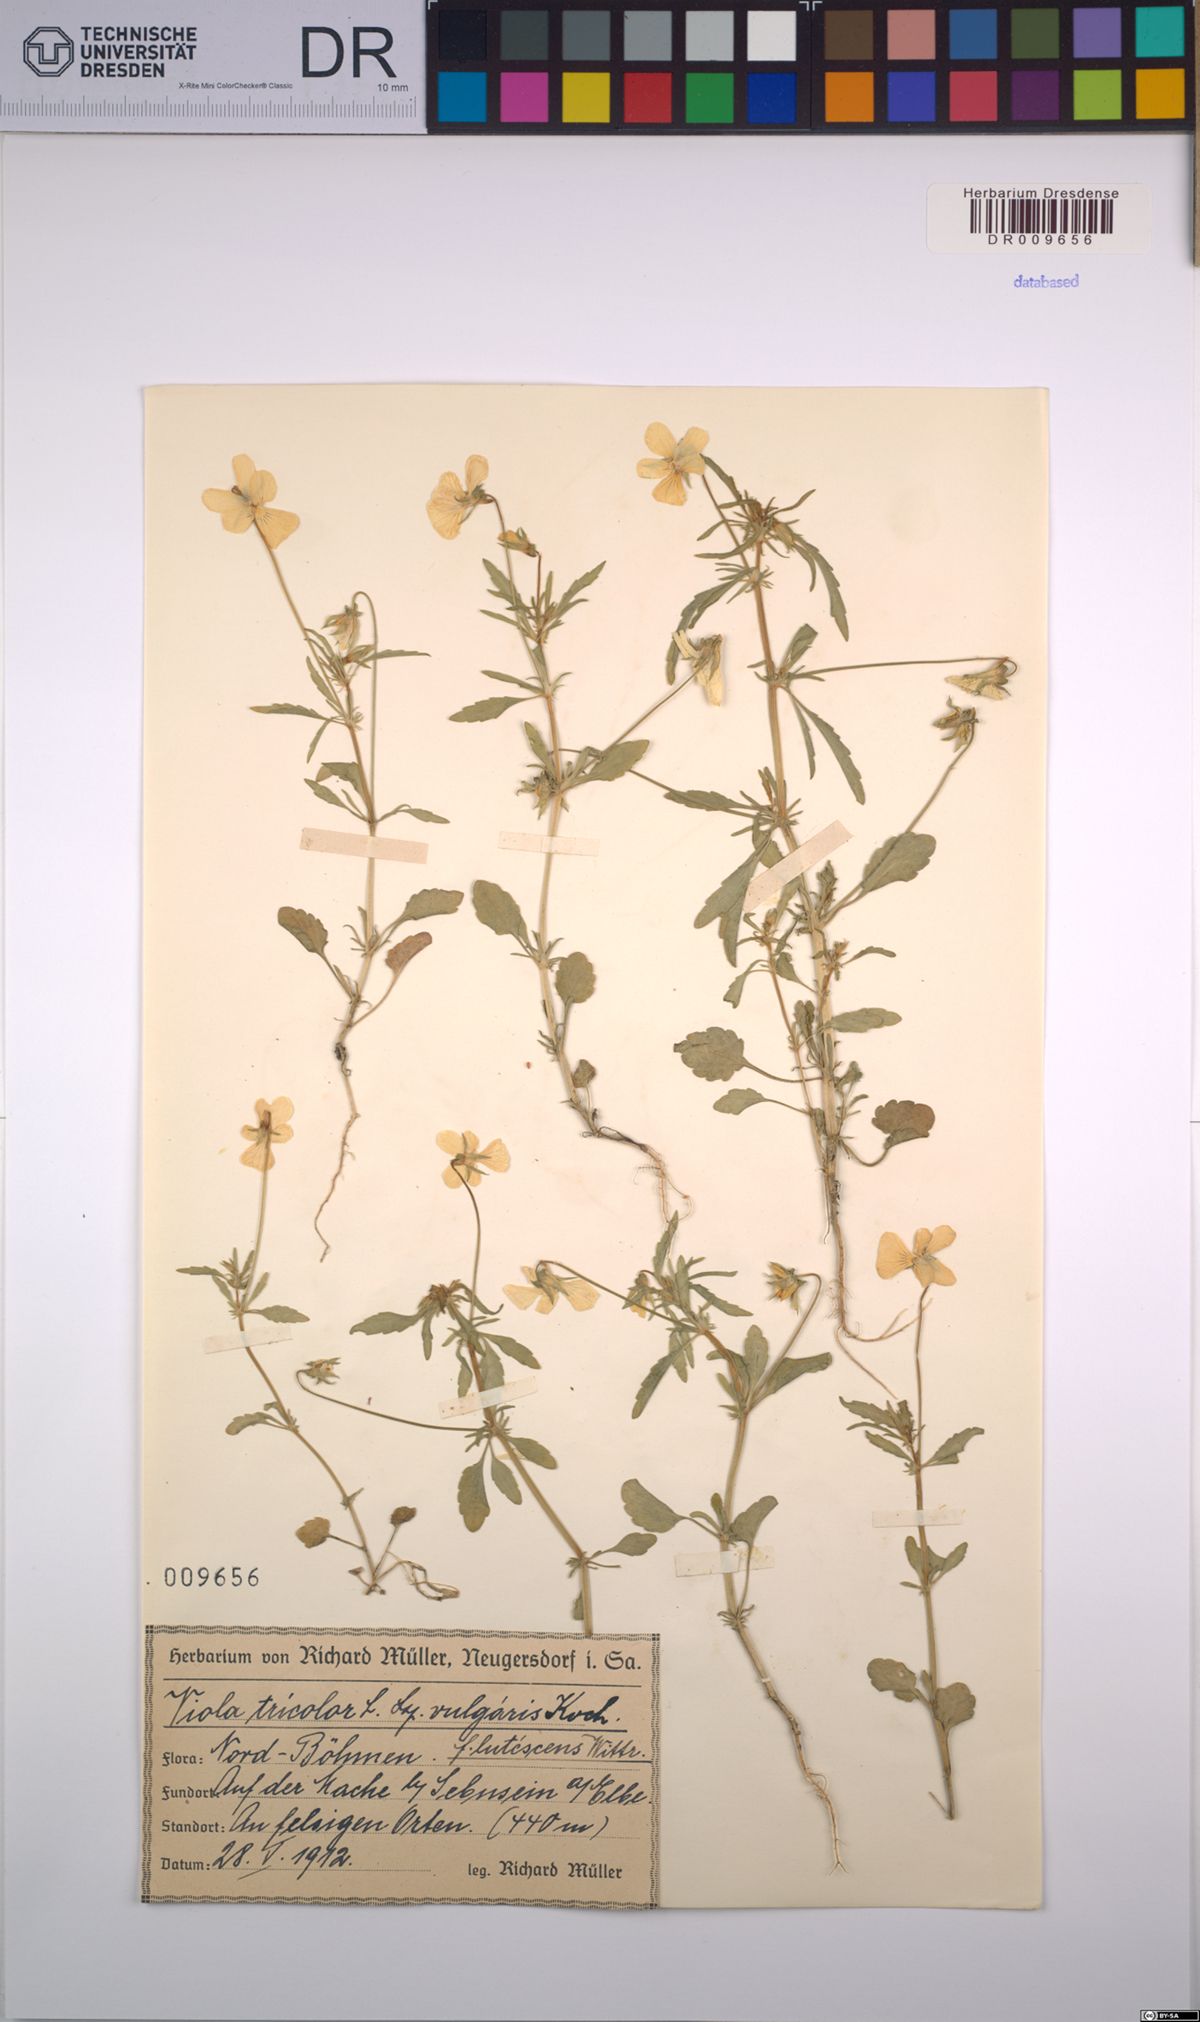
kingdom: Plantae
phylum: Tracheophyta
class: Magnoliopsida
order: Malpighiales
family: Violaceae
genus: Viola
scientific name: Viola tricolor
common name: Pansy
